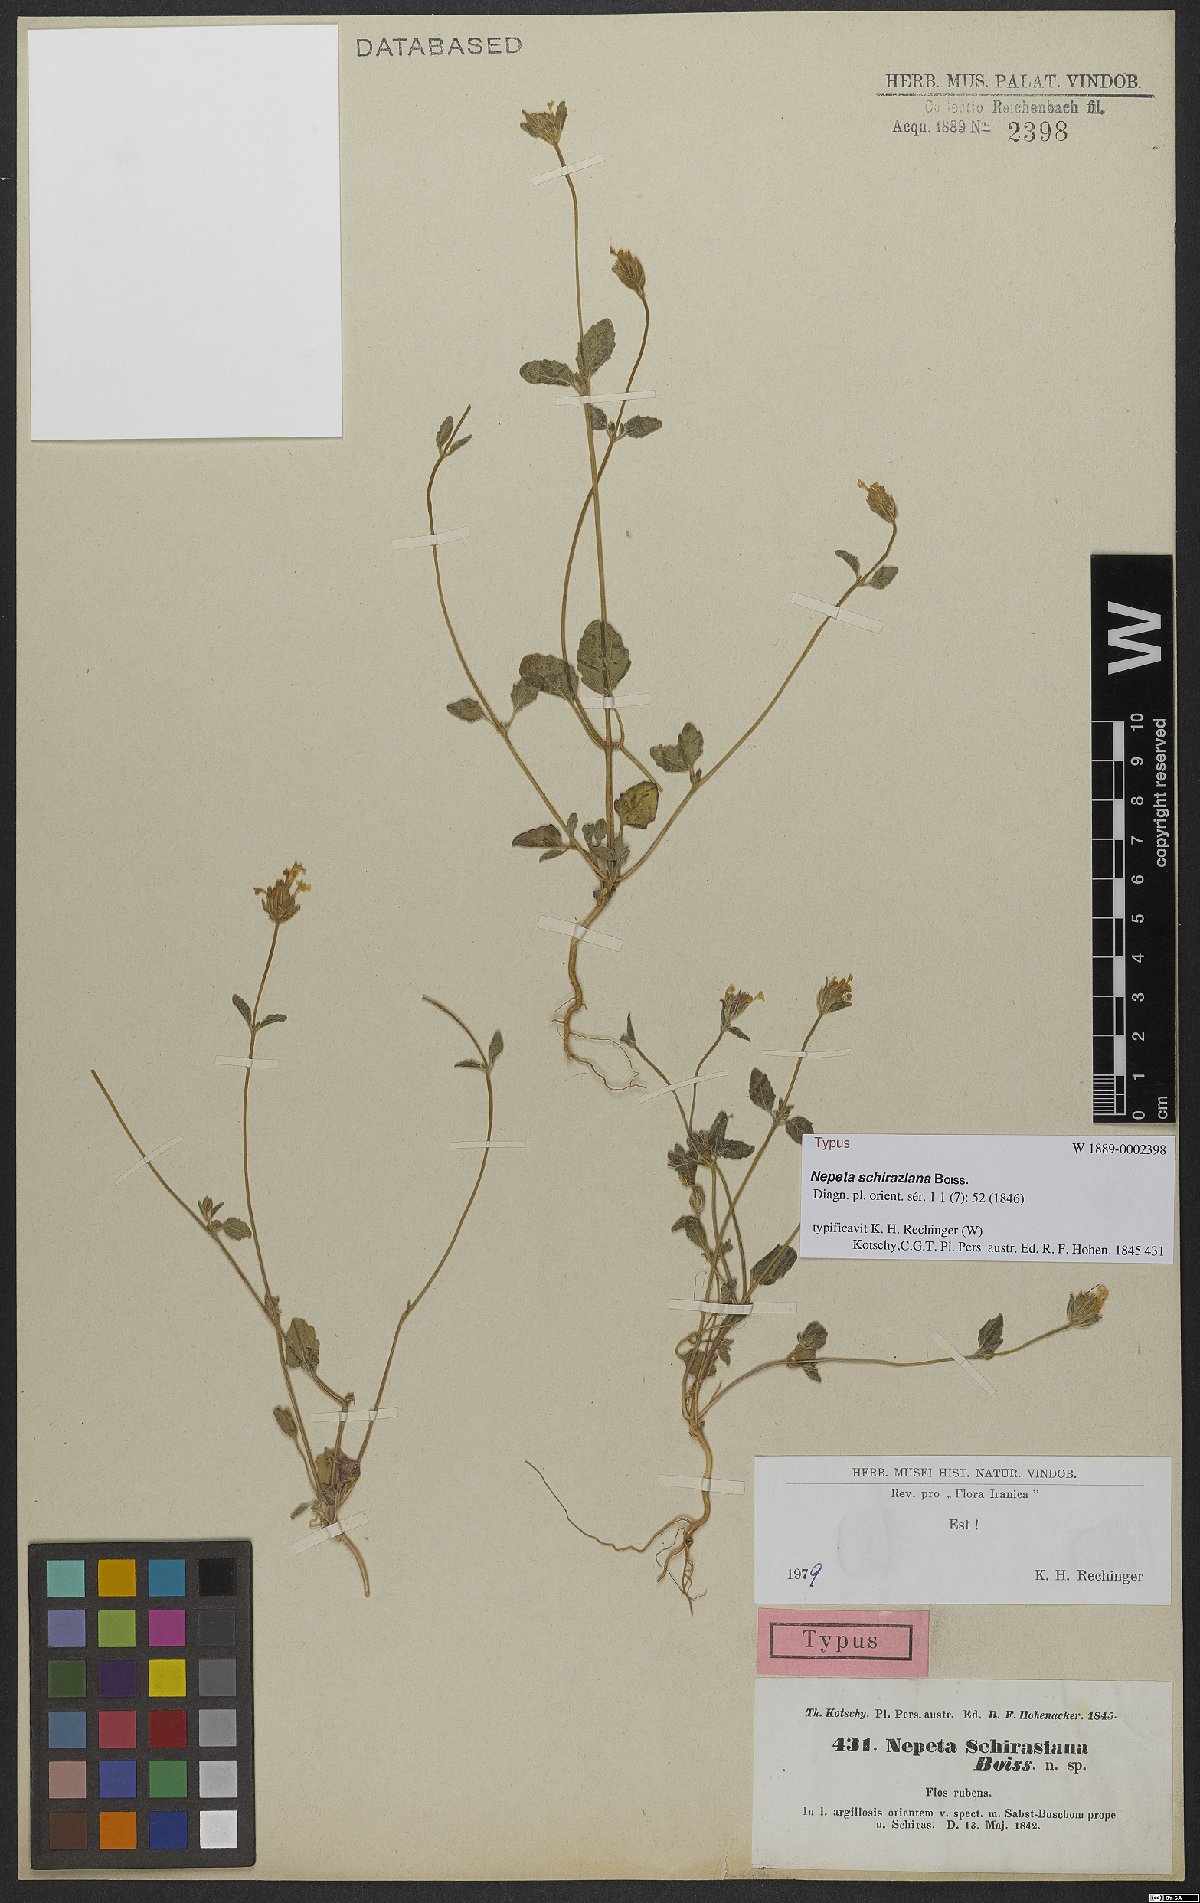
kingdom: Plantae
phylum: Tracheophyta
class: Magnoliopsida
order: Lamiales
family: Lamiaceae
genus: Nepeta
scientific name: Nepeta schiraziana
